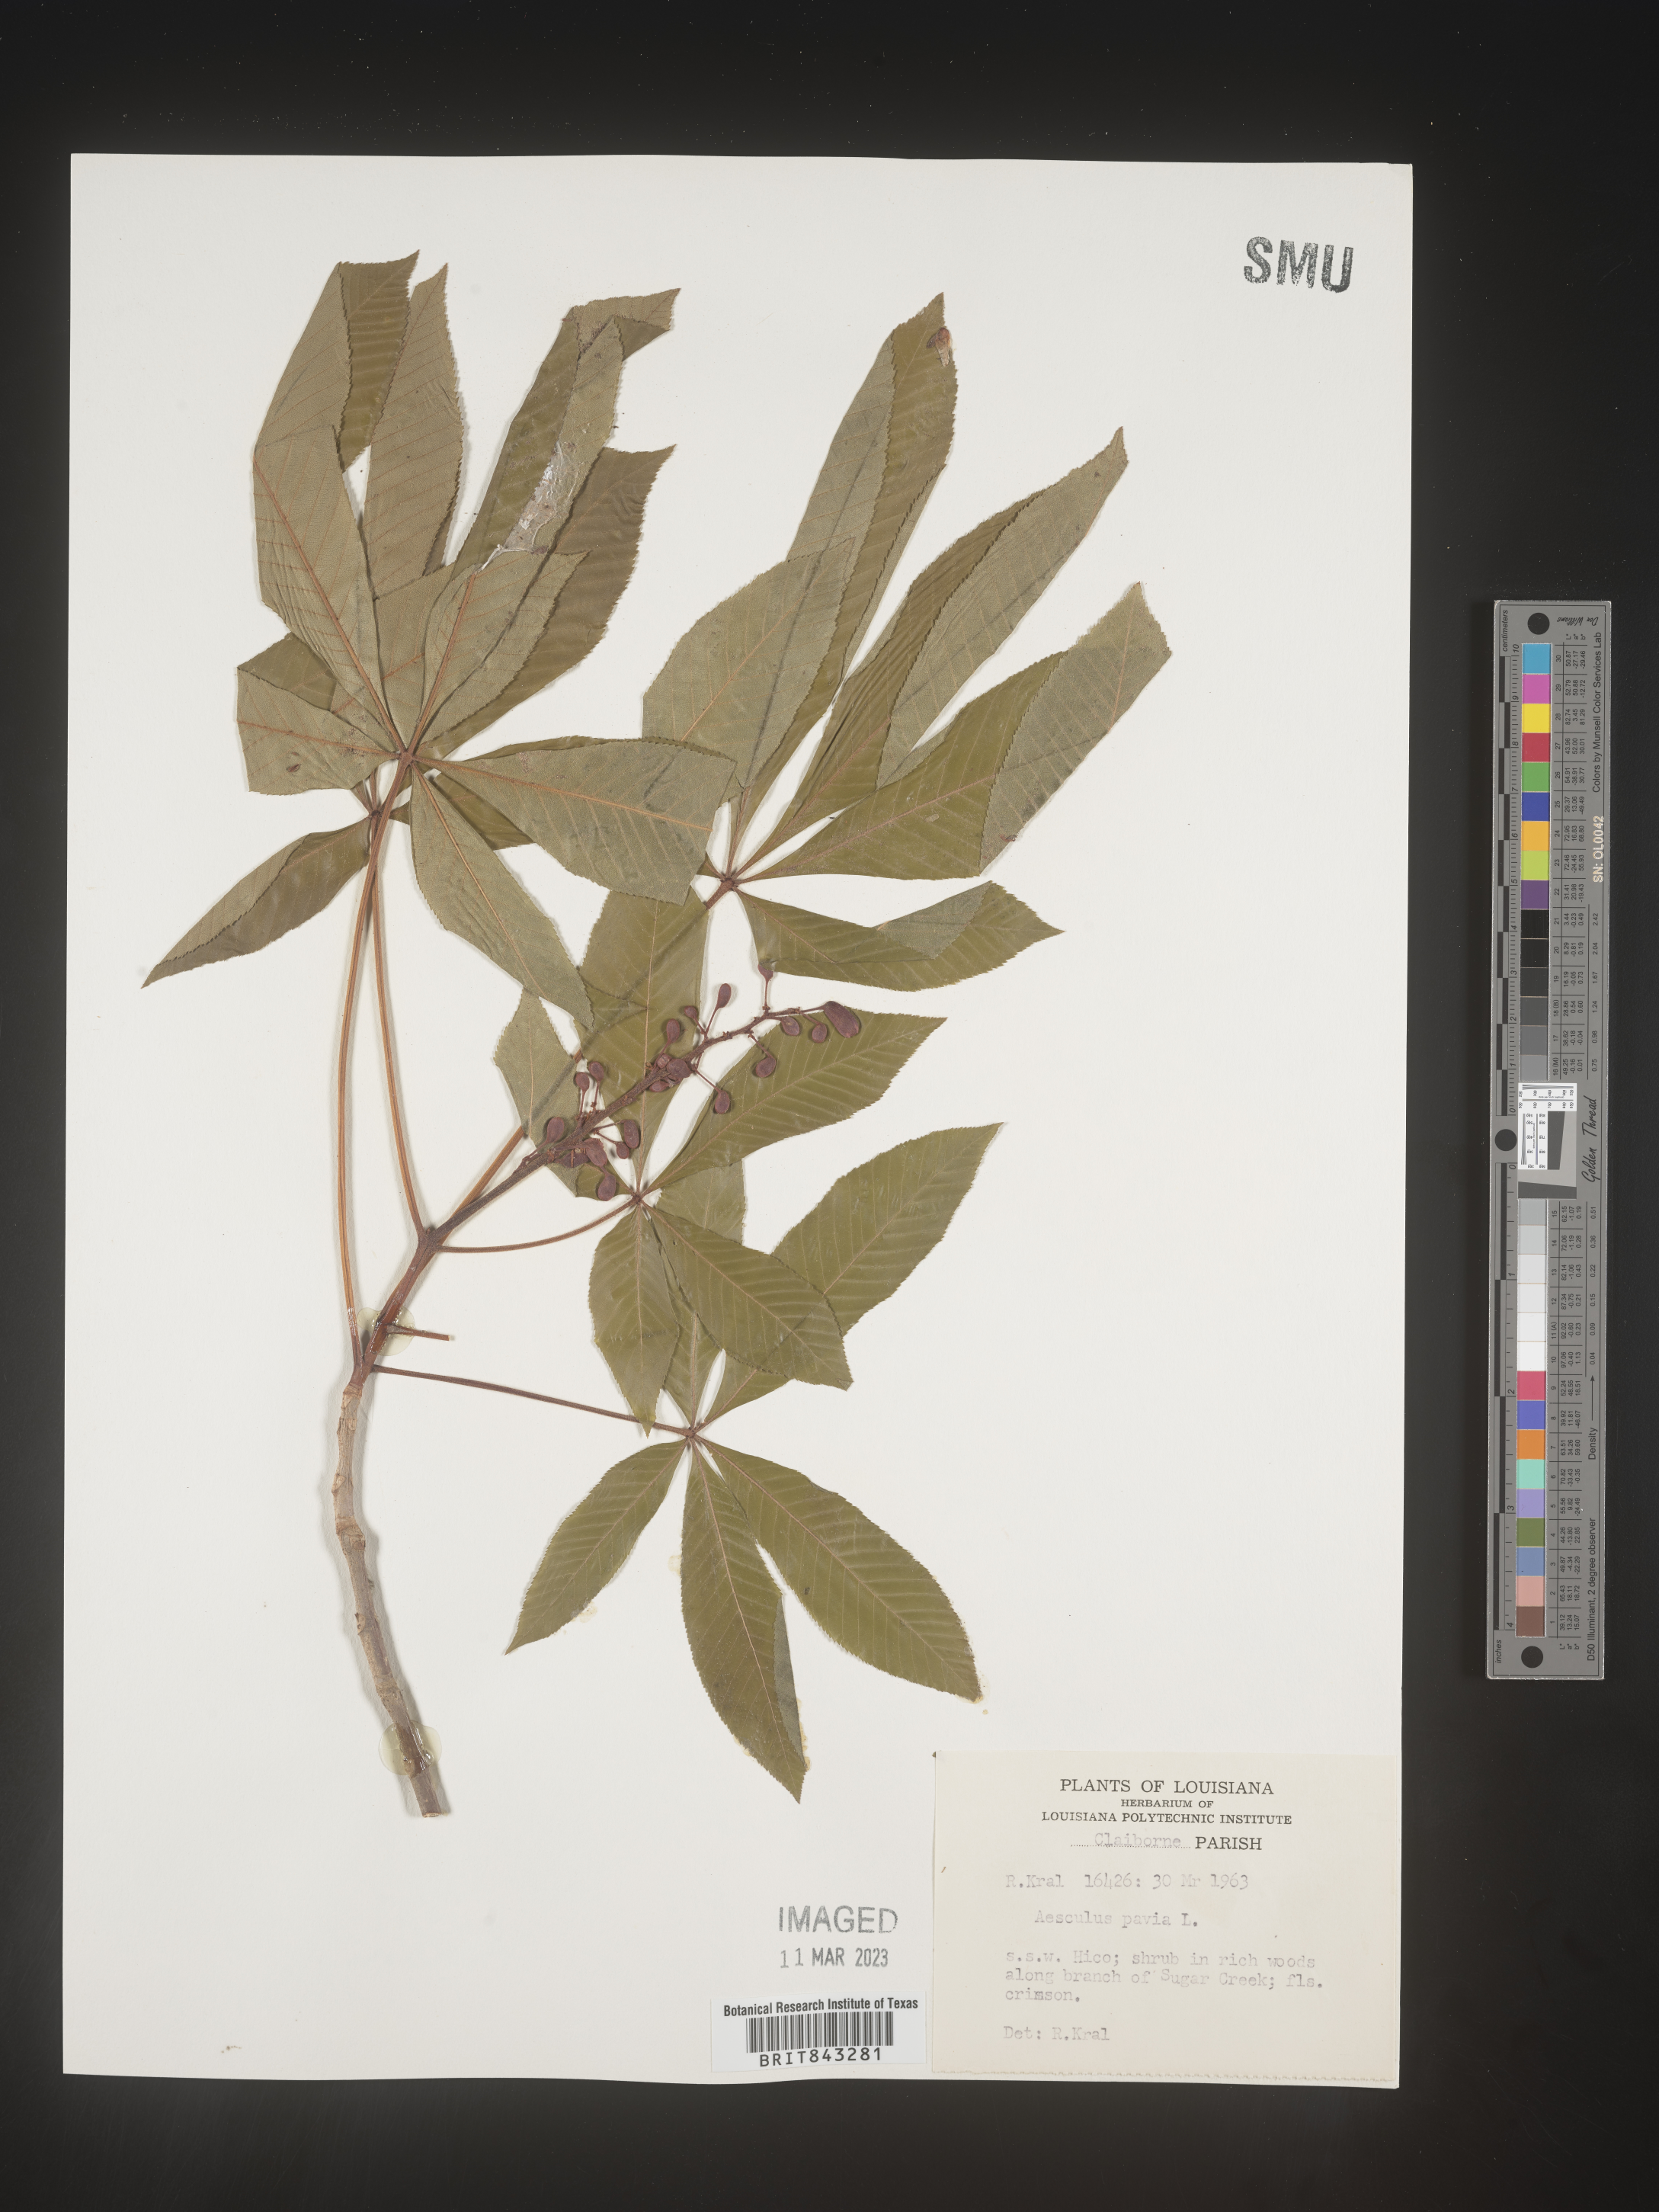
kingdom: Plantae
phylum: Tracheophyta
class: Magnoliopsida
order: Sapindales
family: Sapindaceae
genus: Aesculus
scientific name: Aesculus pavia
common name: Red buckeye
